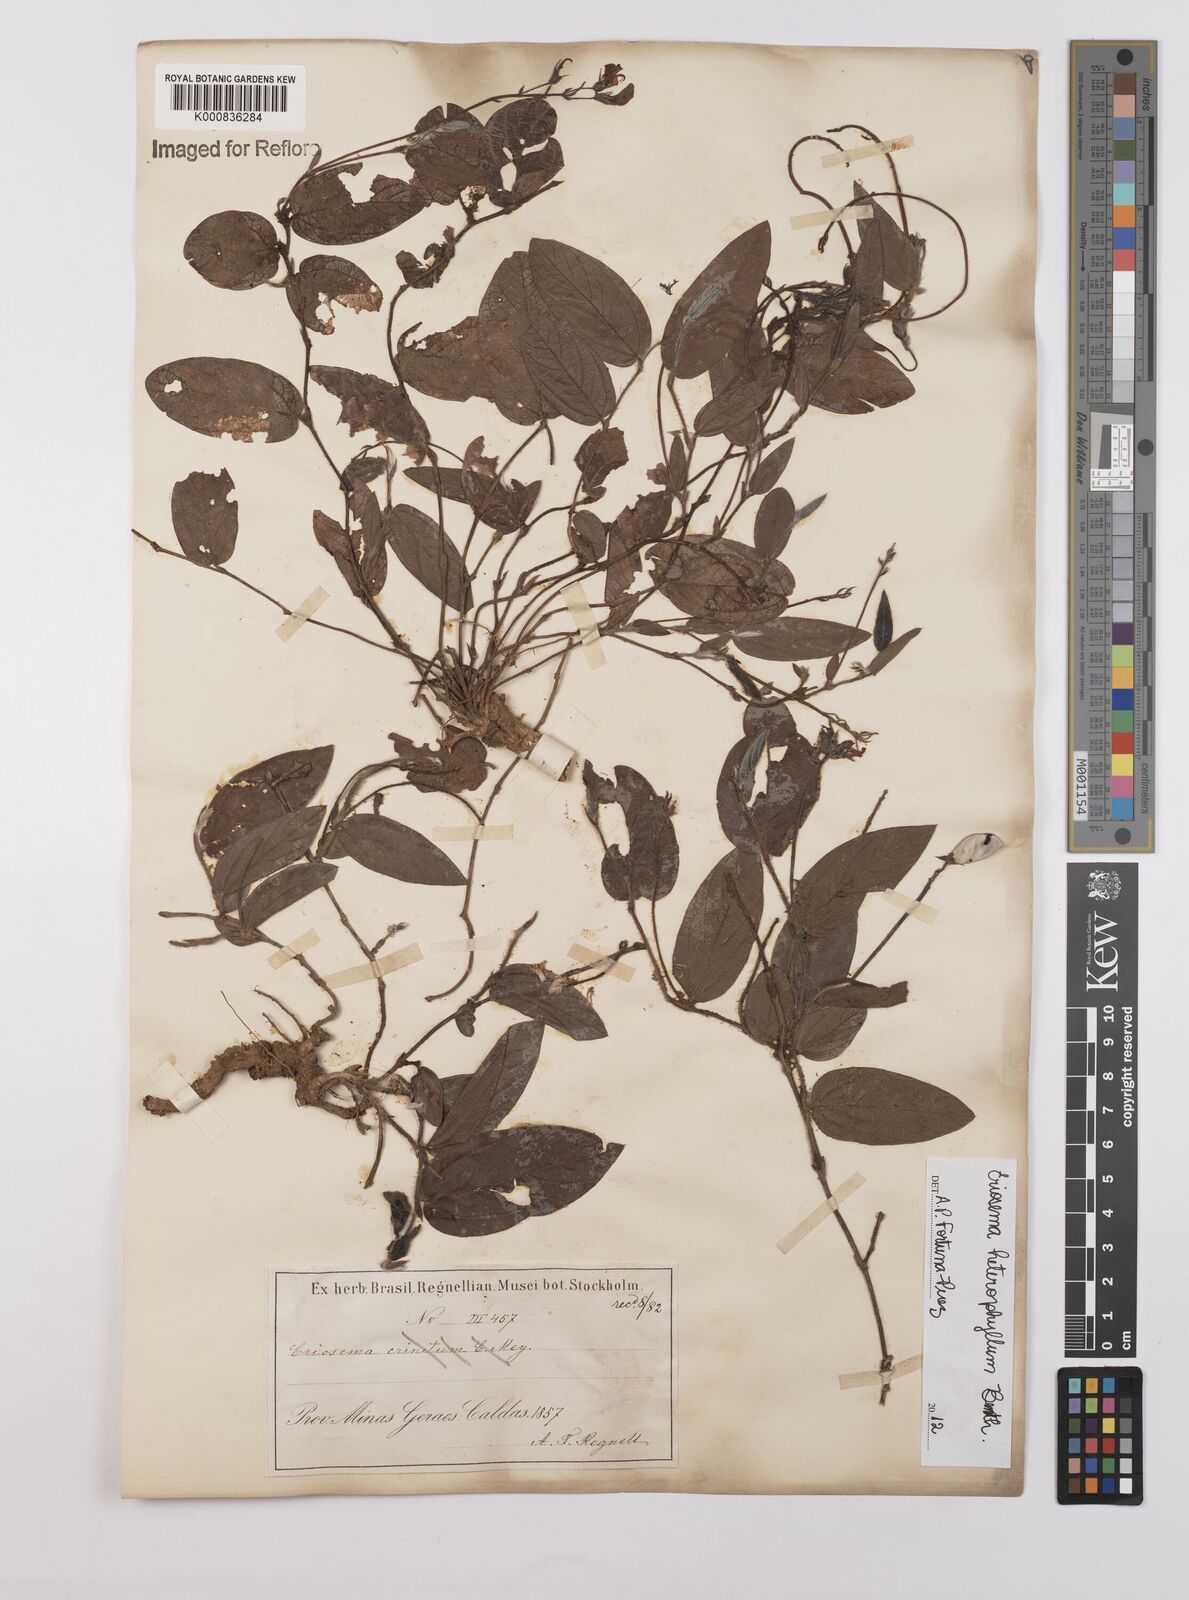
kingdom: Plantae
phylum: Tracheophyta
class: Magnoliopsida
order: Fabales
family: Fabaceae
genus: Eriosema
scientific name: Eriosema heterophyllum
